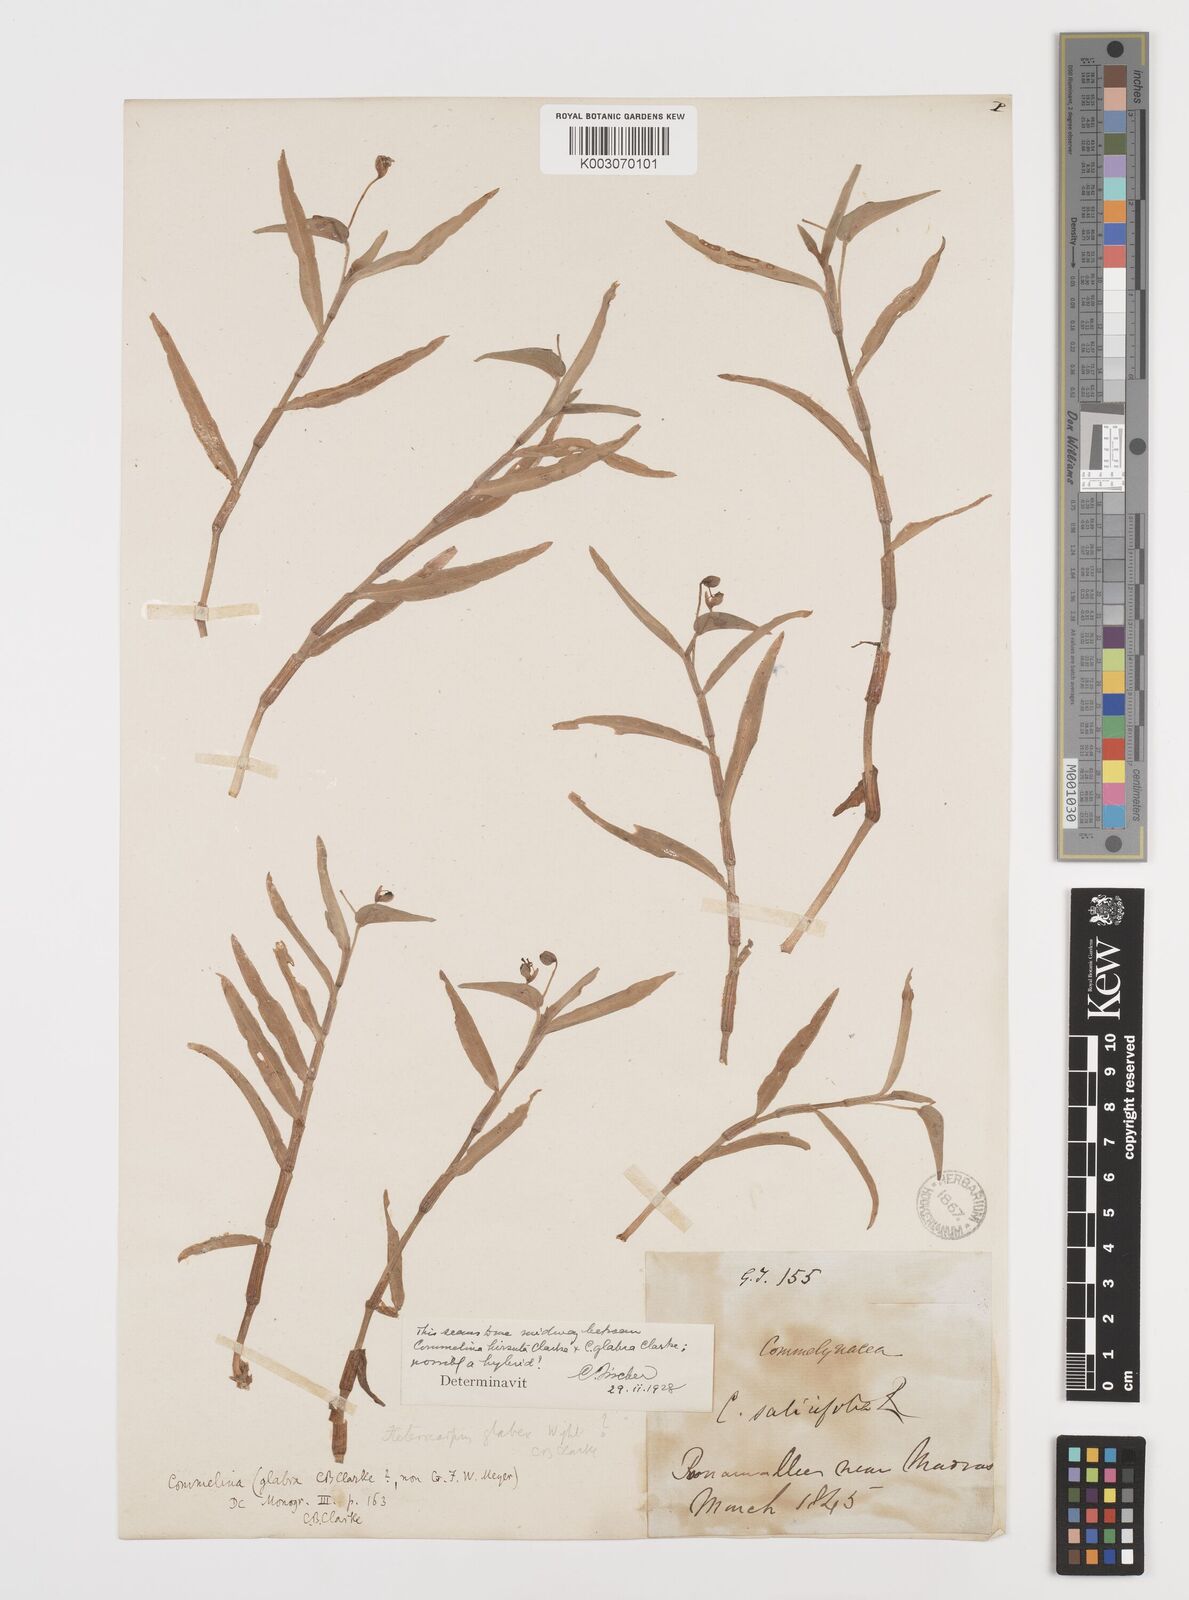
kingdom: Plantae
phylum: Tracheophyta
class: Liliopsida
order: Commelinales
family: Commelinaceae
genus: Commelina
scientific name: Commelina hirsuta
